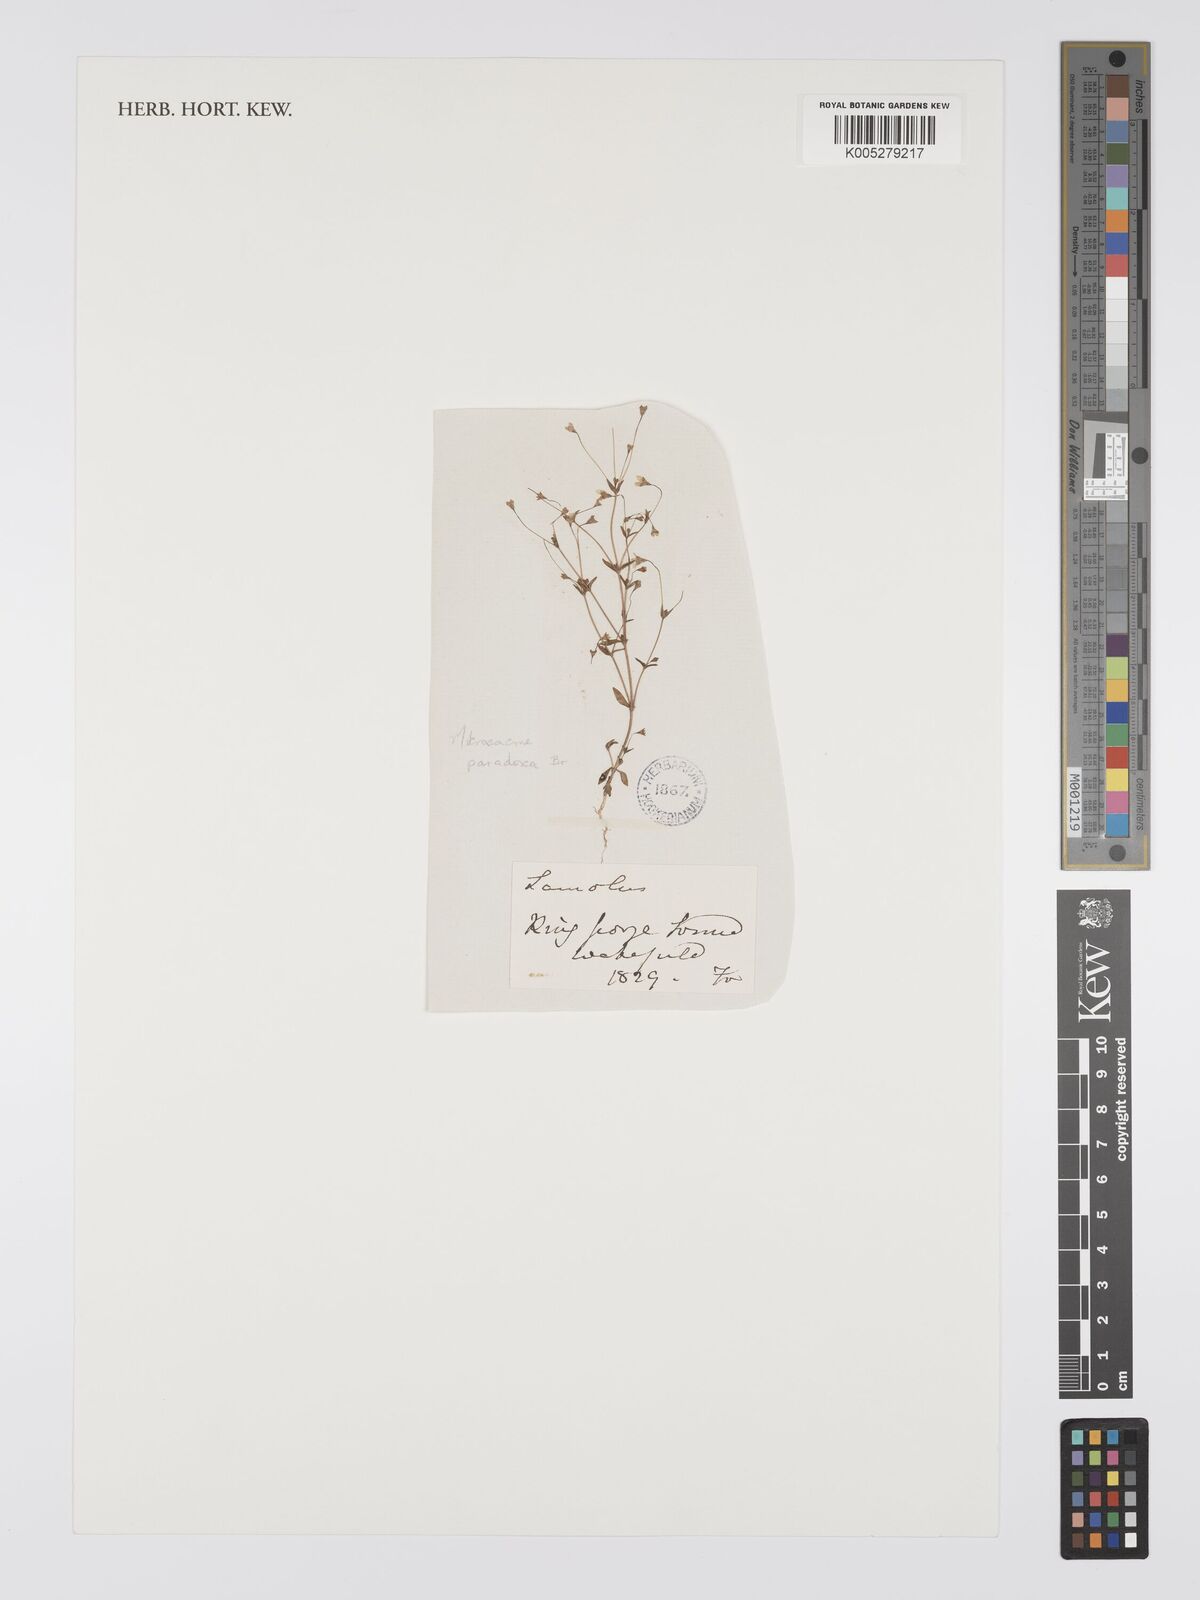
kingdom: Plantae
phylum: Tracheophyta
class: Magnoliopsida
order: Gentianales
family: Loganiaceae
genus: Phyllangium
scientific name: Phyllangium paradoxum
